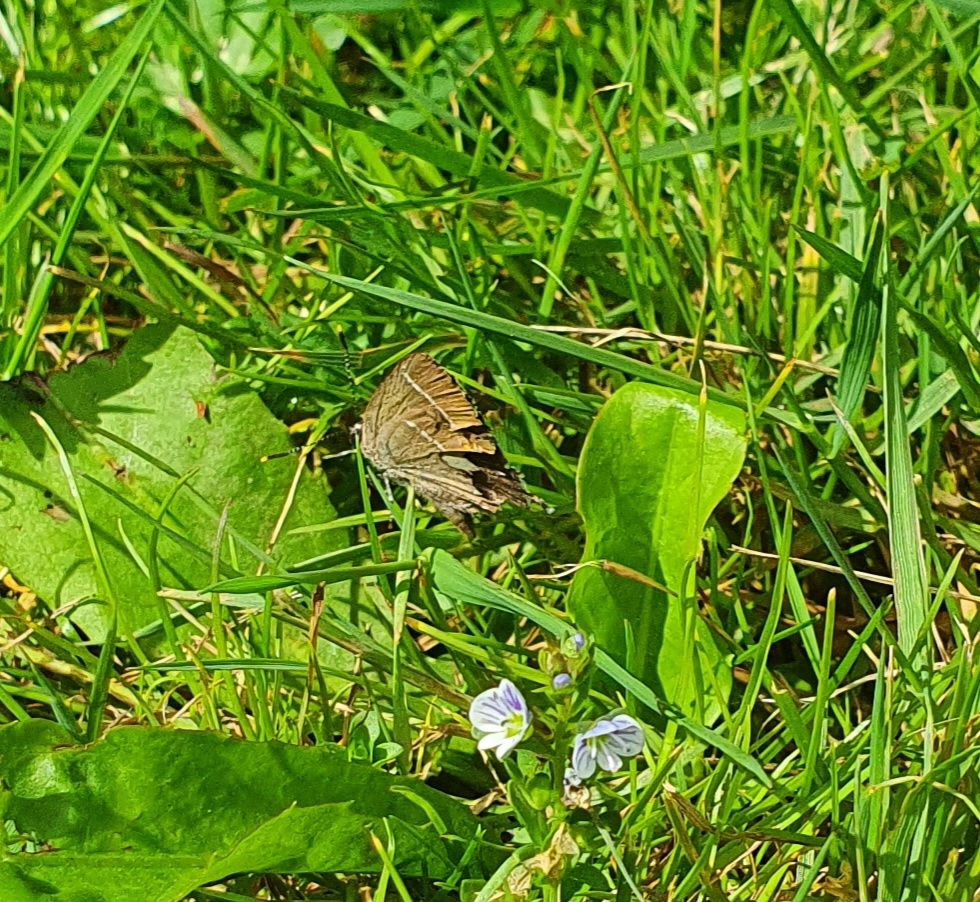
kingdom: Animalia
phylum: Arthropoda
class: Insecta
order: Lepidoptera
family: Lycaenidae
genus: Satyrium
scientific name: Satyrium w-album
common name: Det hvide W
